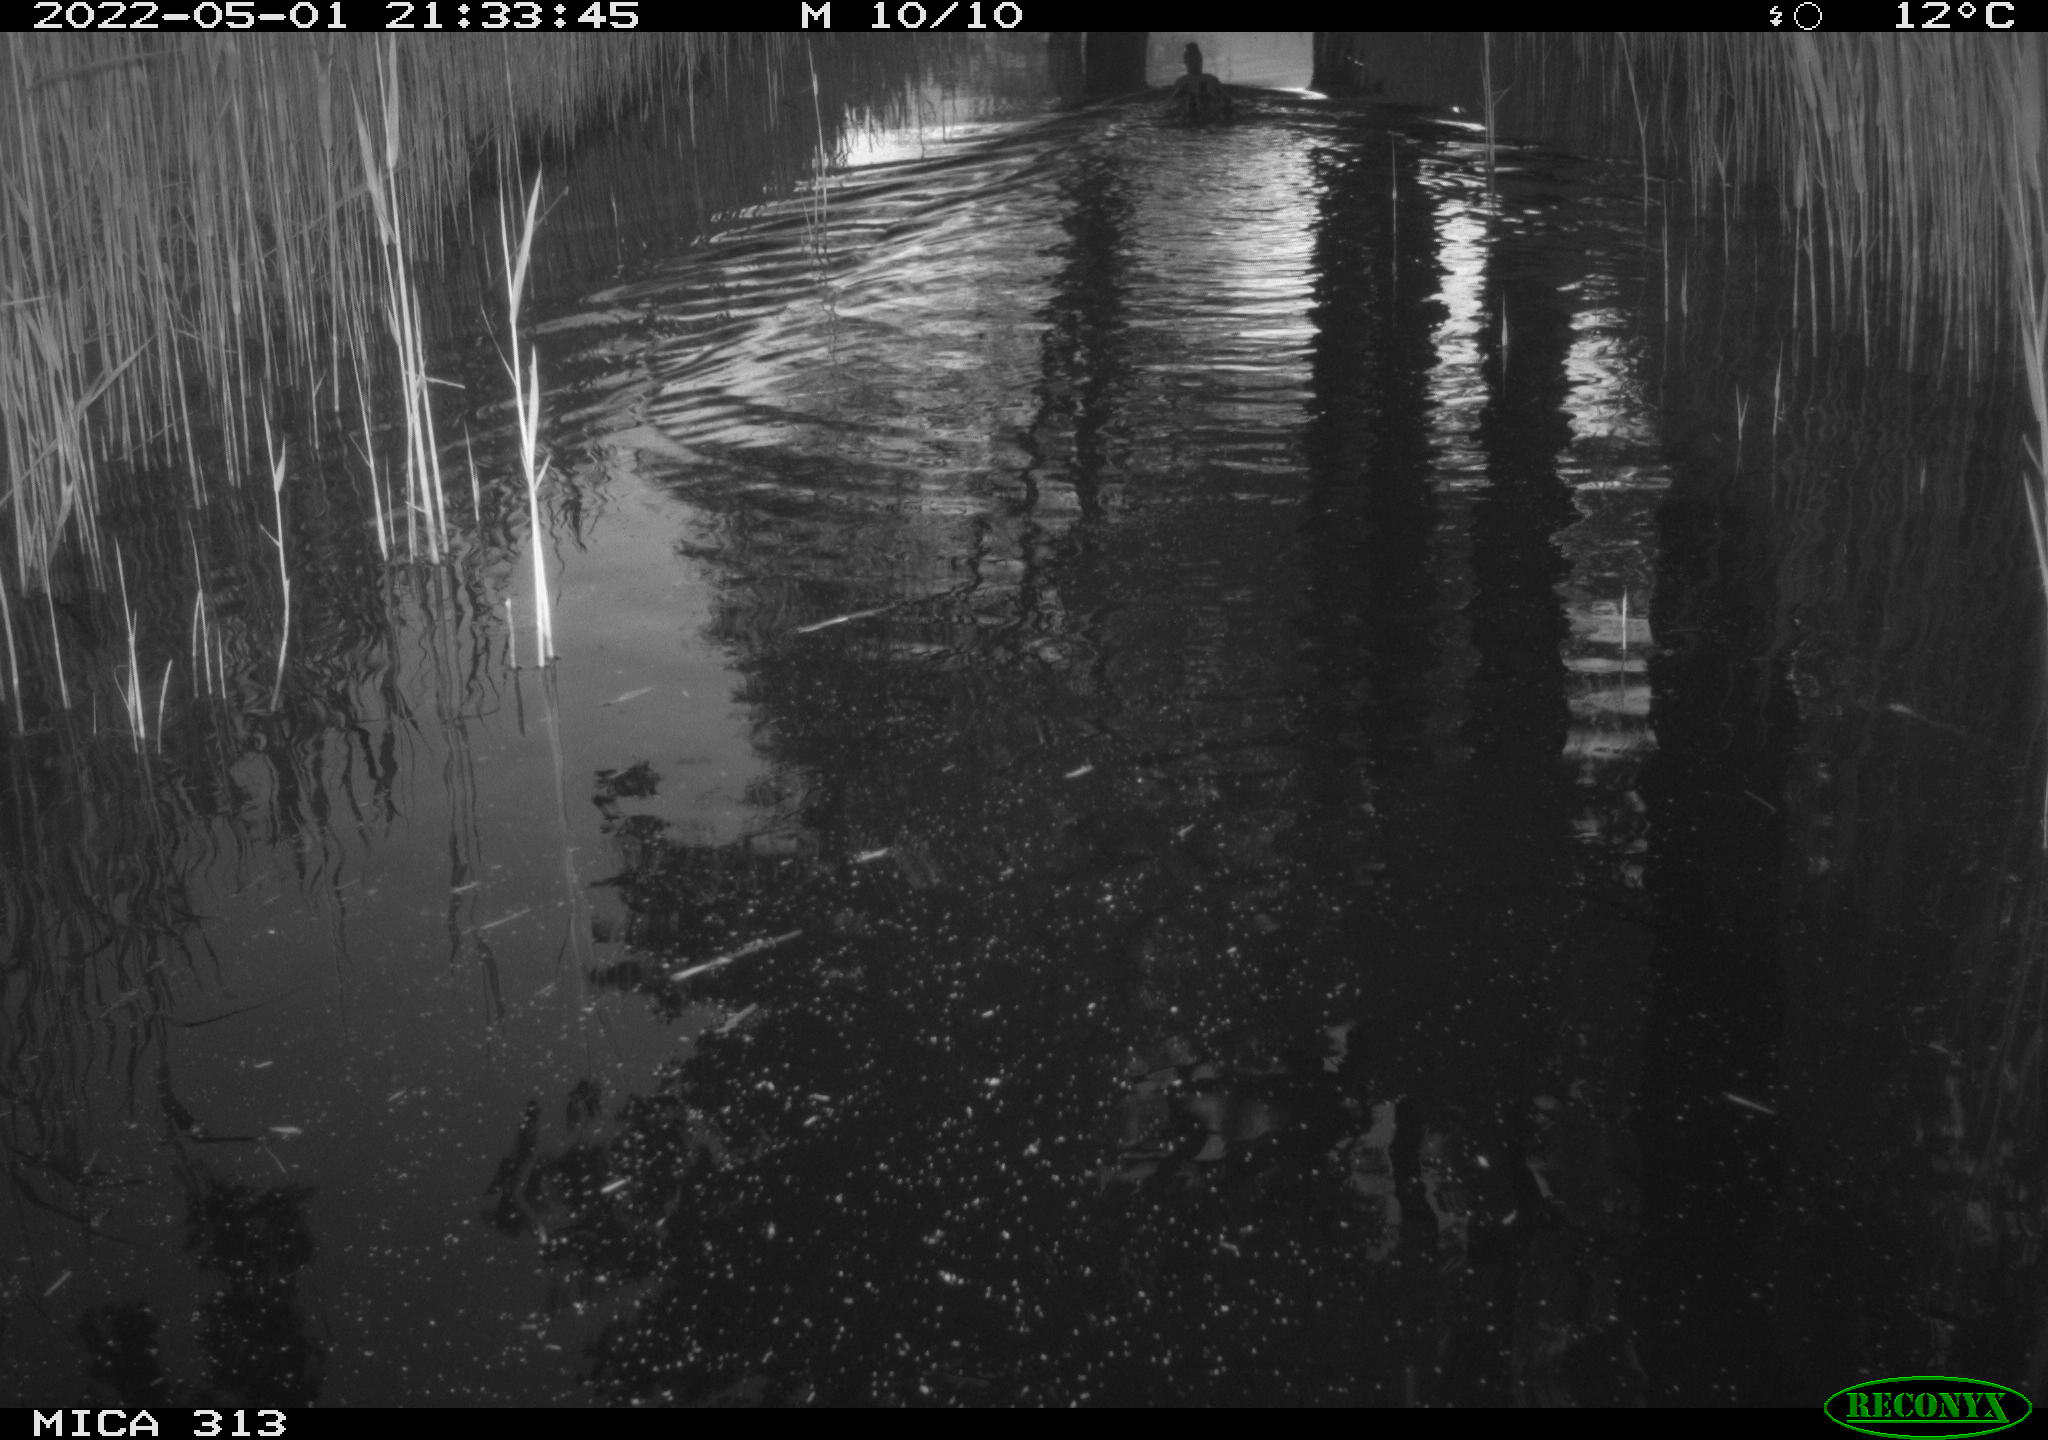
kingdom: Animalia
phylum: Chordata
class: Aves
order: Anseriformes
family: Anatidae
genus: Anas
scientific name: Anas platyrhynchos
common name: Mallard
